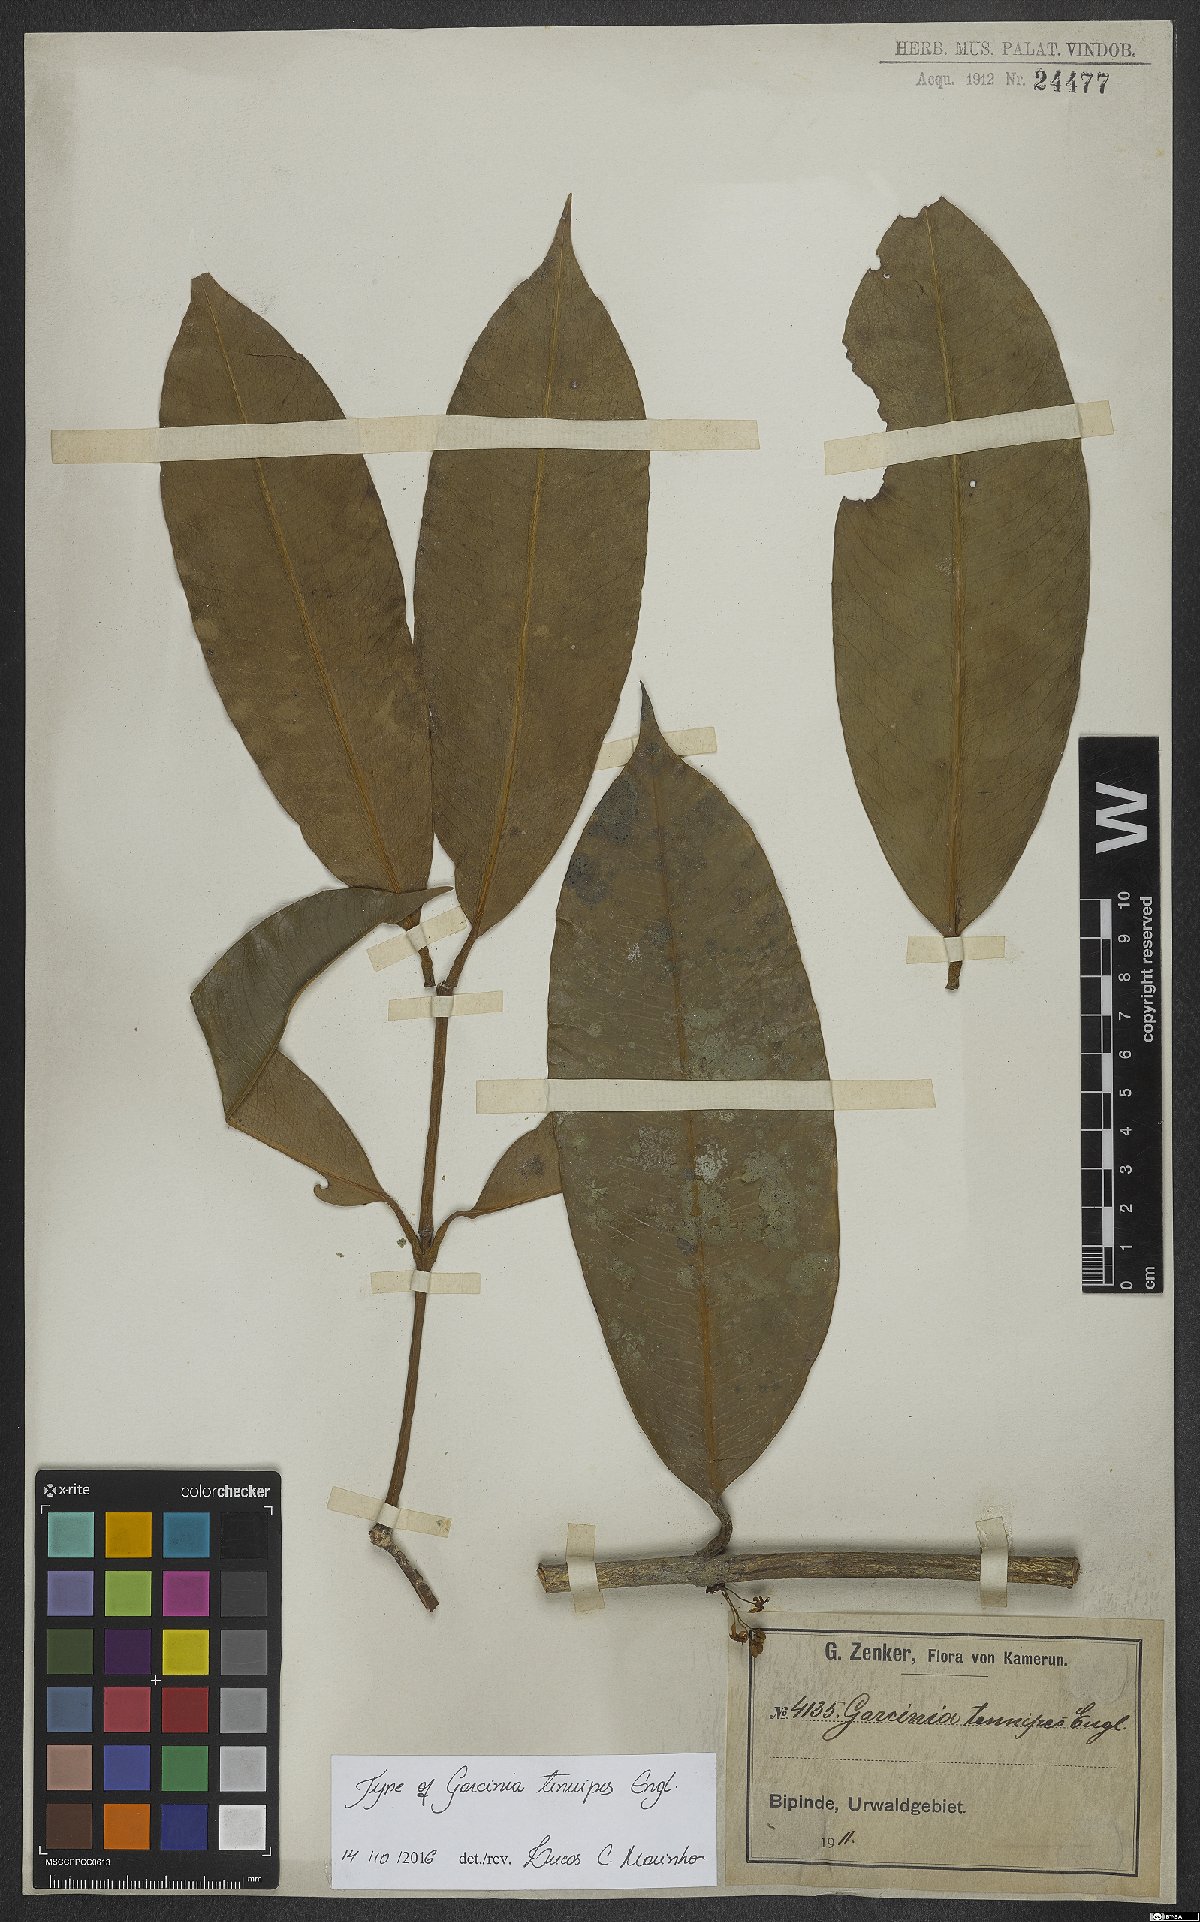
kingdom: Plantae
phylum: Tracheophyta
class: Magnoliopsida
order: Malpighiales
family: Clusiaceae
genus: Garcinia
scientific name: Garcinia smeathmannii
